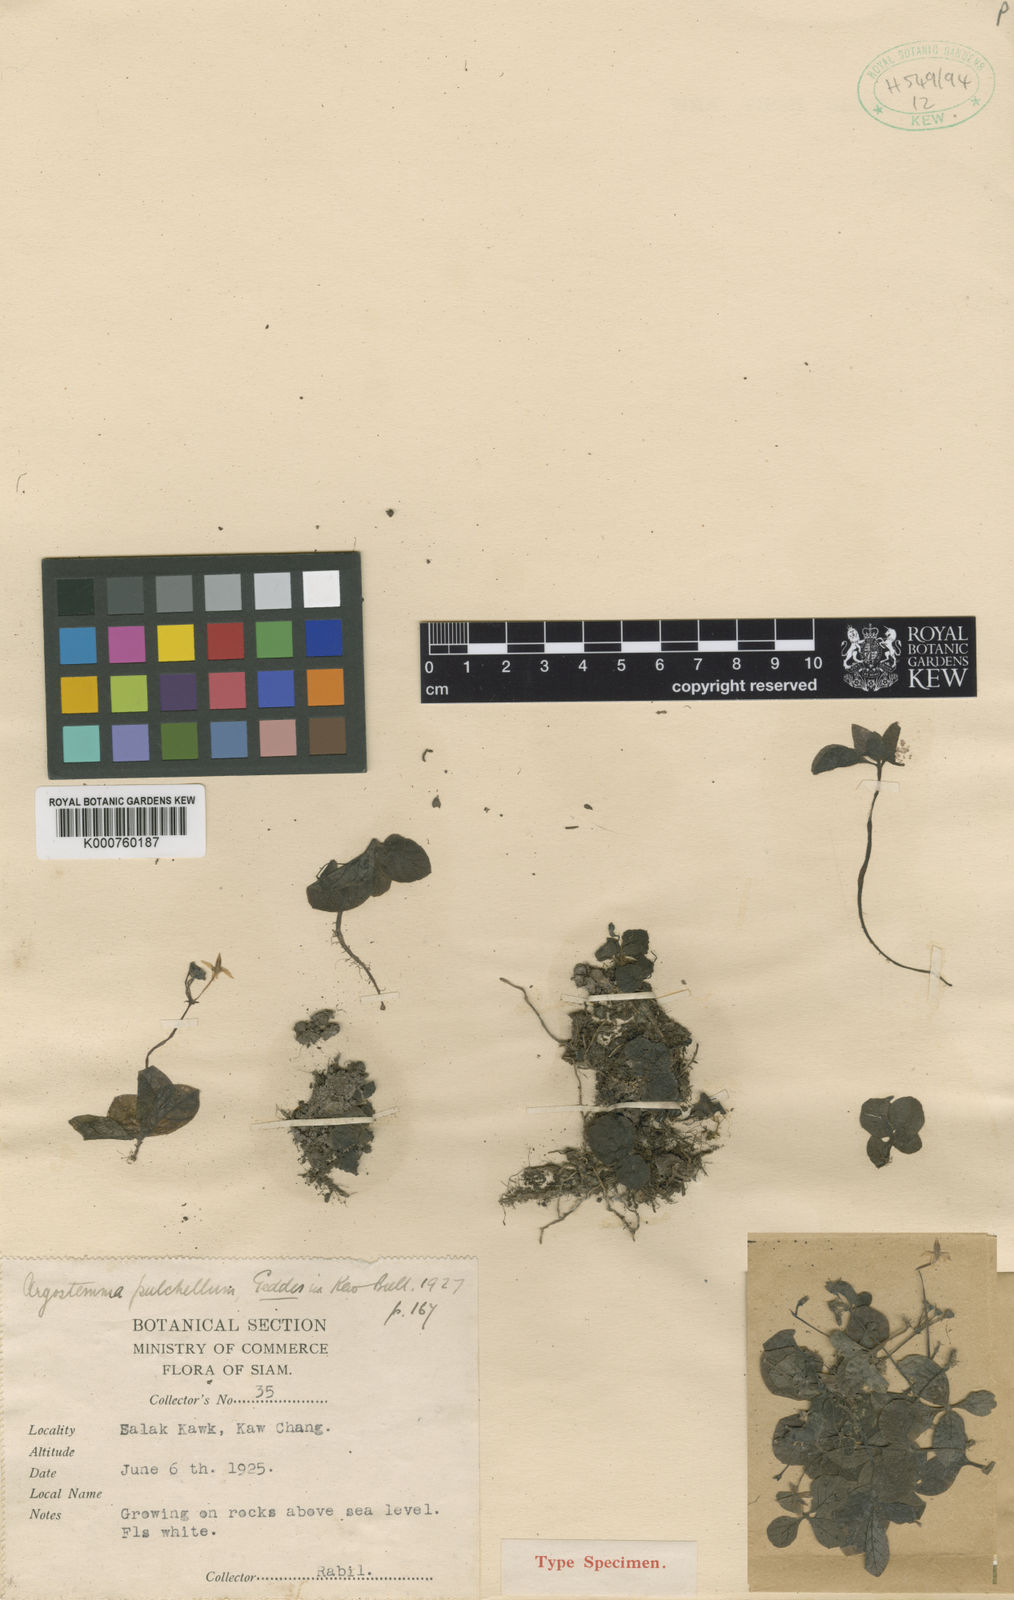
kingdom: Plantae
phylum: Tracheophyta
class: Magnoliopsida
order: Gentianales
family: Rubiaceae
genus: Argostemma
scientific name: Argostemma pulchellum
